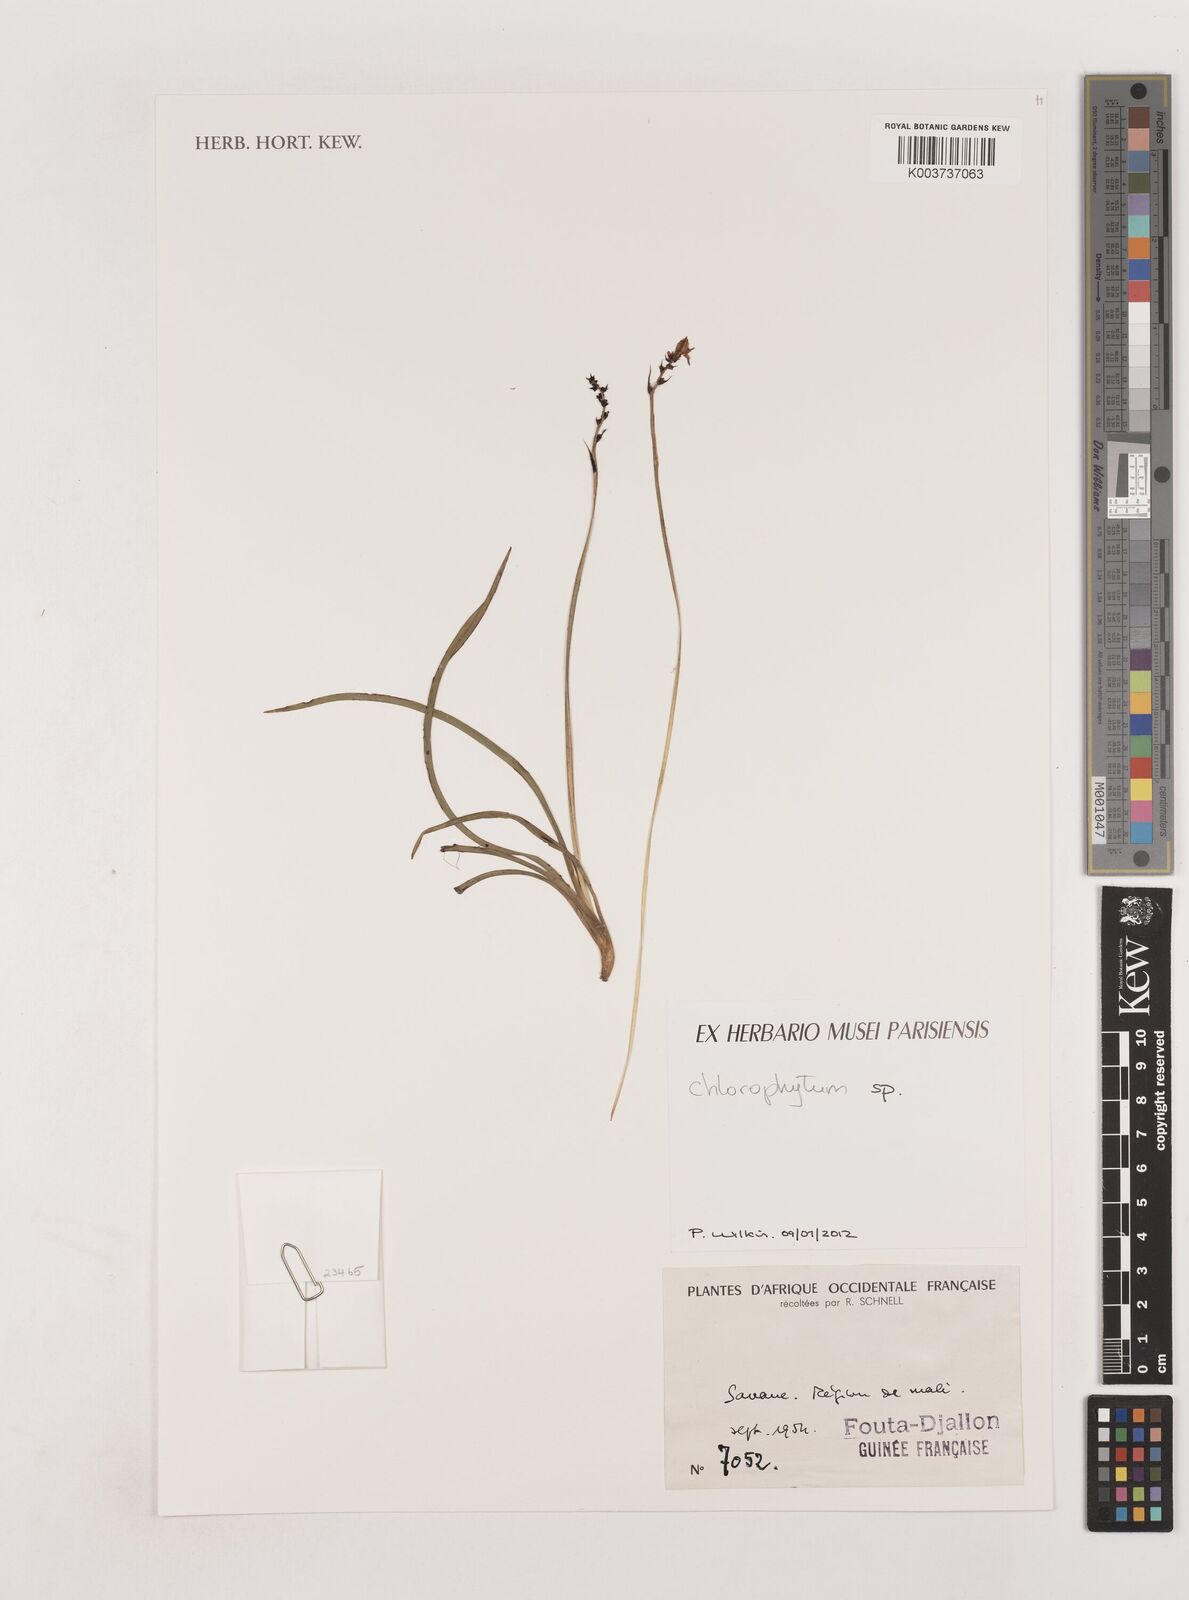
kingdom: Plantae
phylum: Tracheophyta
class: Liliopsida
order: Asparagales
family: Asparagaceae
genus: Chlorophytum
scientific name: Chlorophytum
